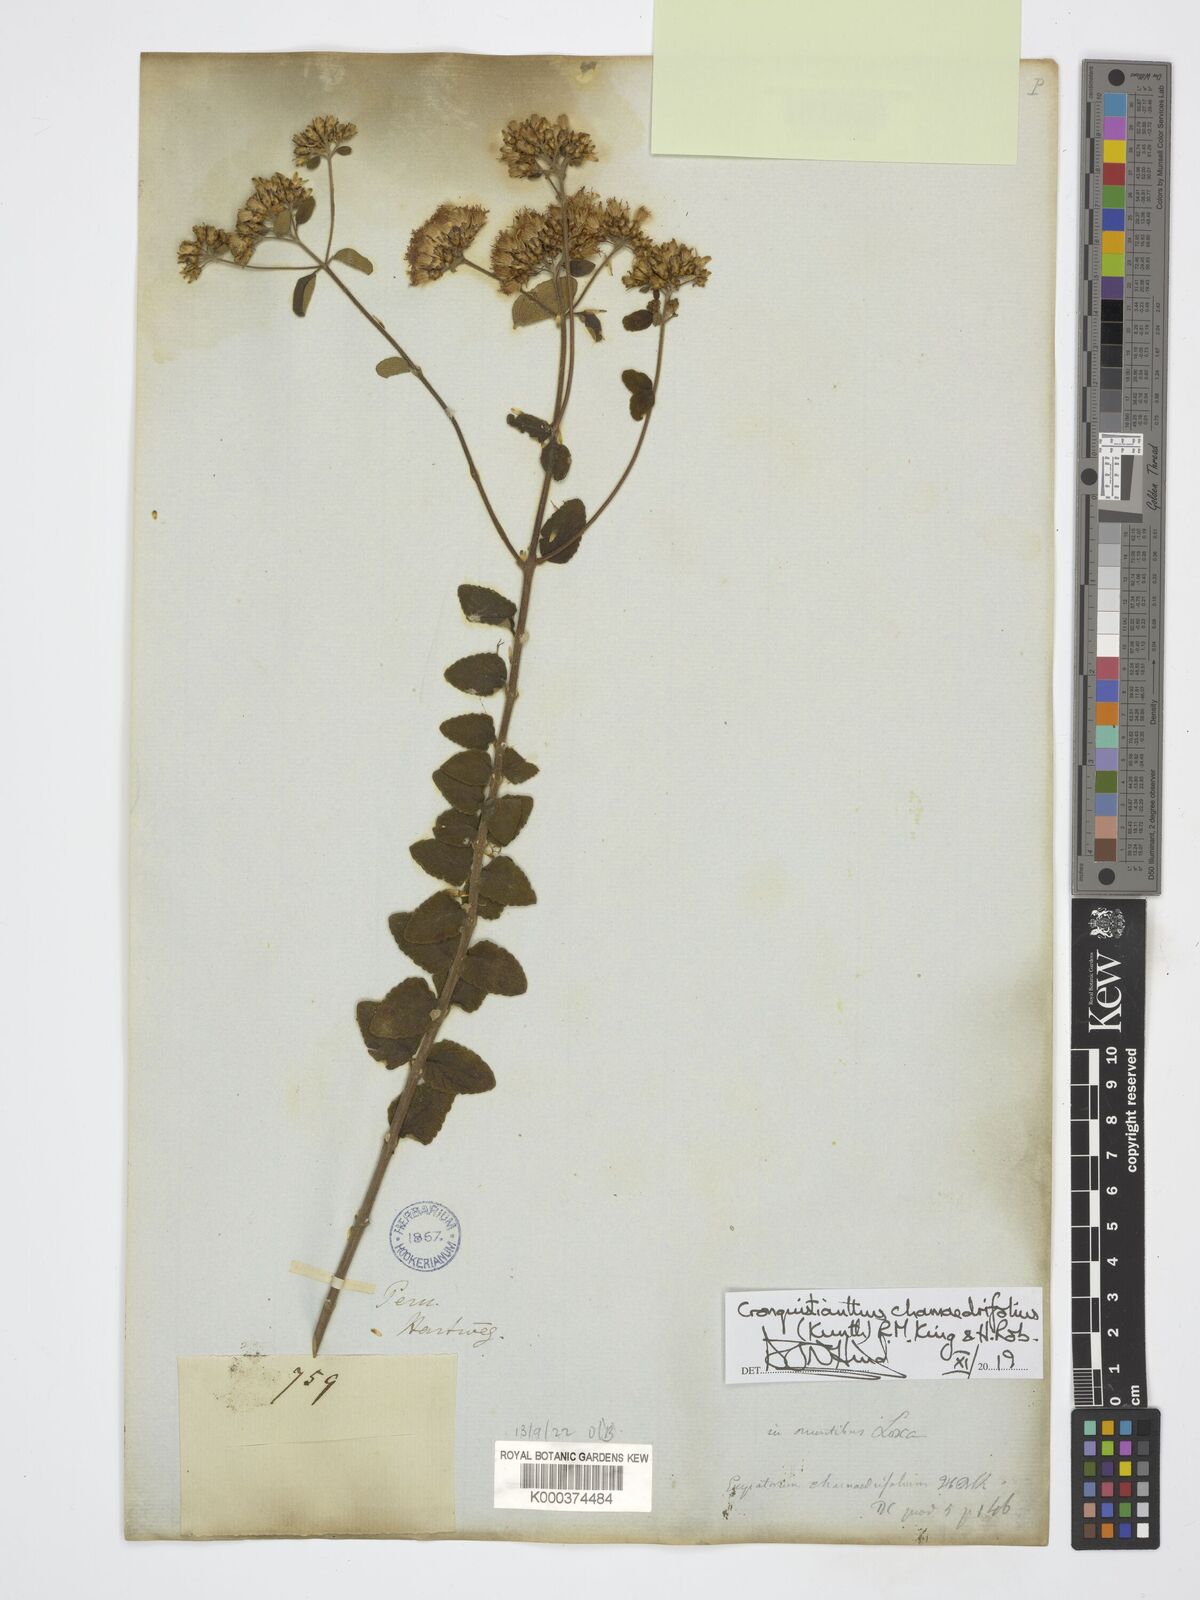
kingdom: Plantae
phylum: Tracheophyta
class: Magnoliopsida
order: Asterales
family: Asteraceae
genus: Cronquistianthus
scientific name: Cronquistianthus chamaedrifolius
